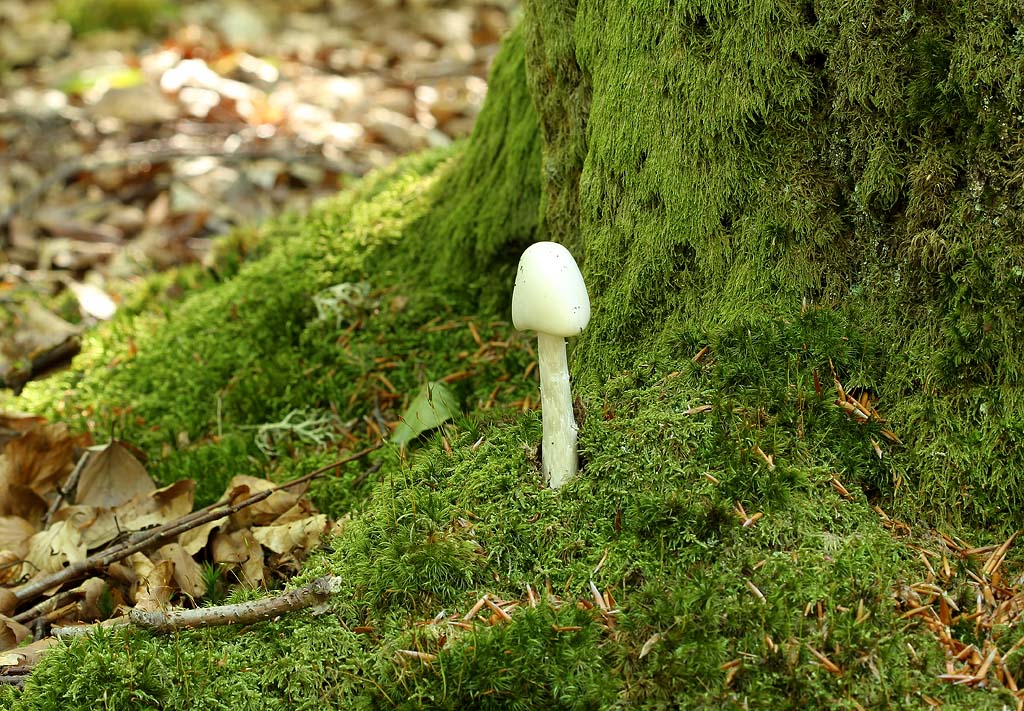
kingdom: Fungi
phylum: Basidiomycota
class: Agaricomycetes
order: Agaricales
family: Amanitaceae
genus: Amanita
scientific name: Amanita virosa
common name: snehvid fluesvamp
